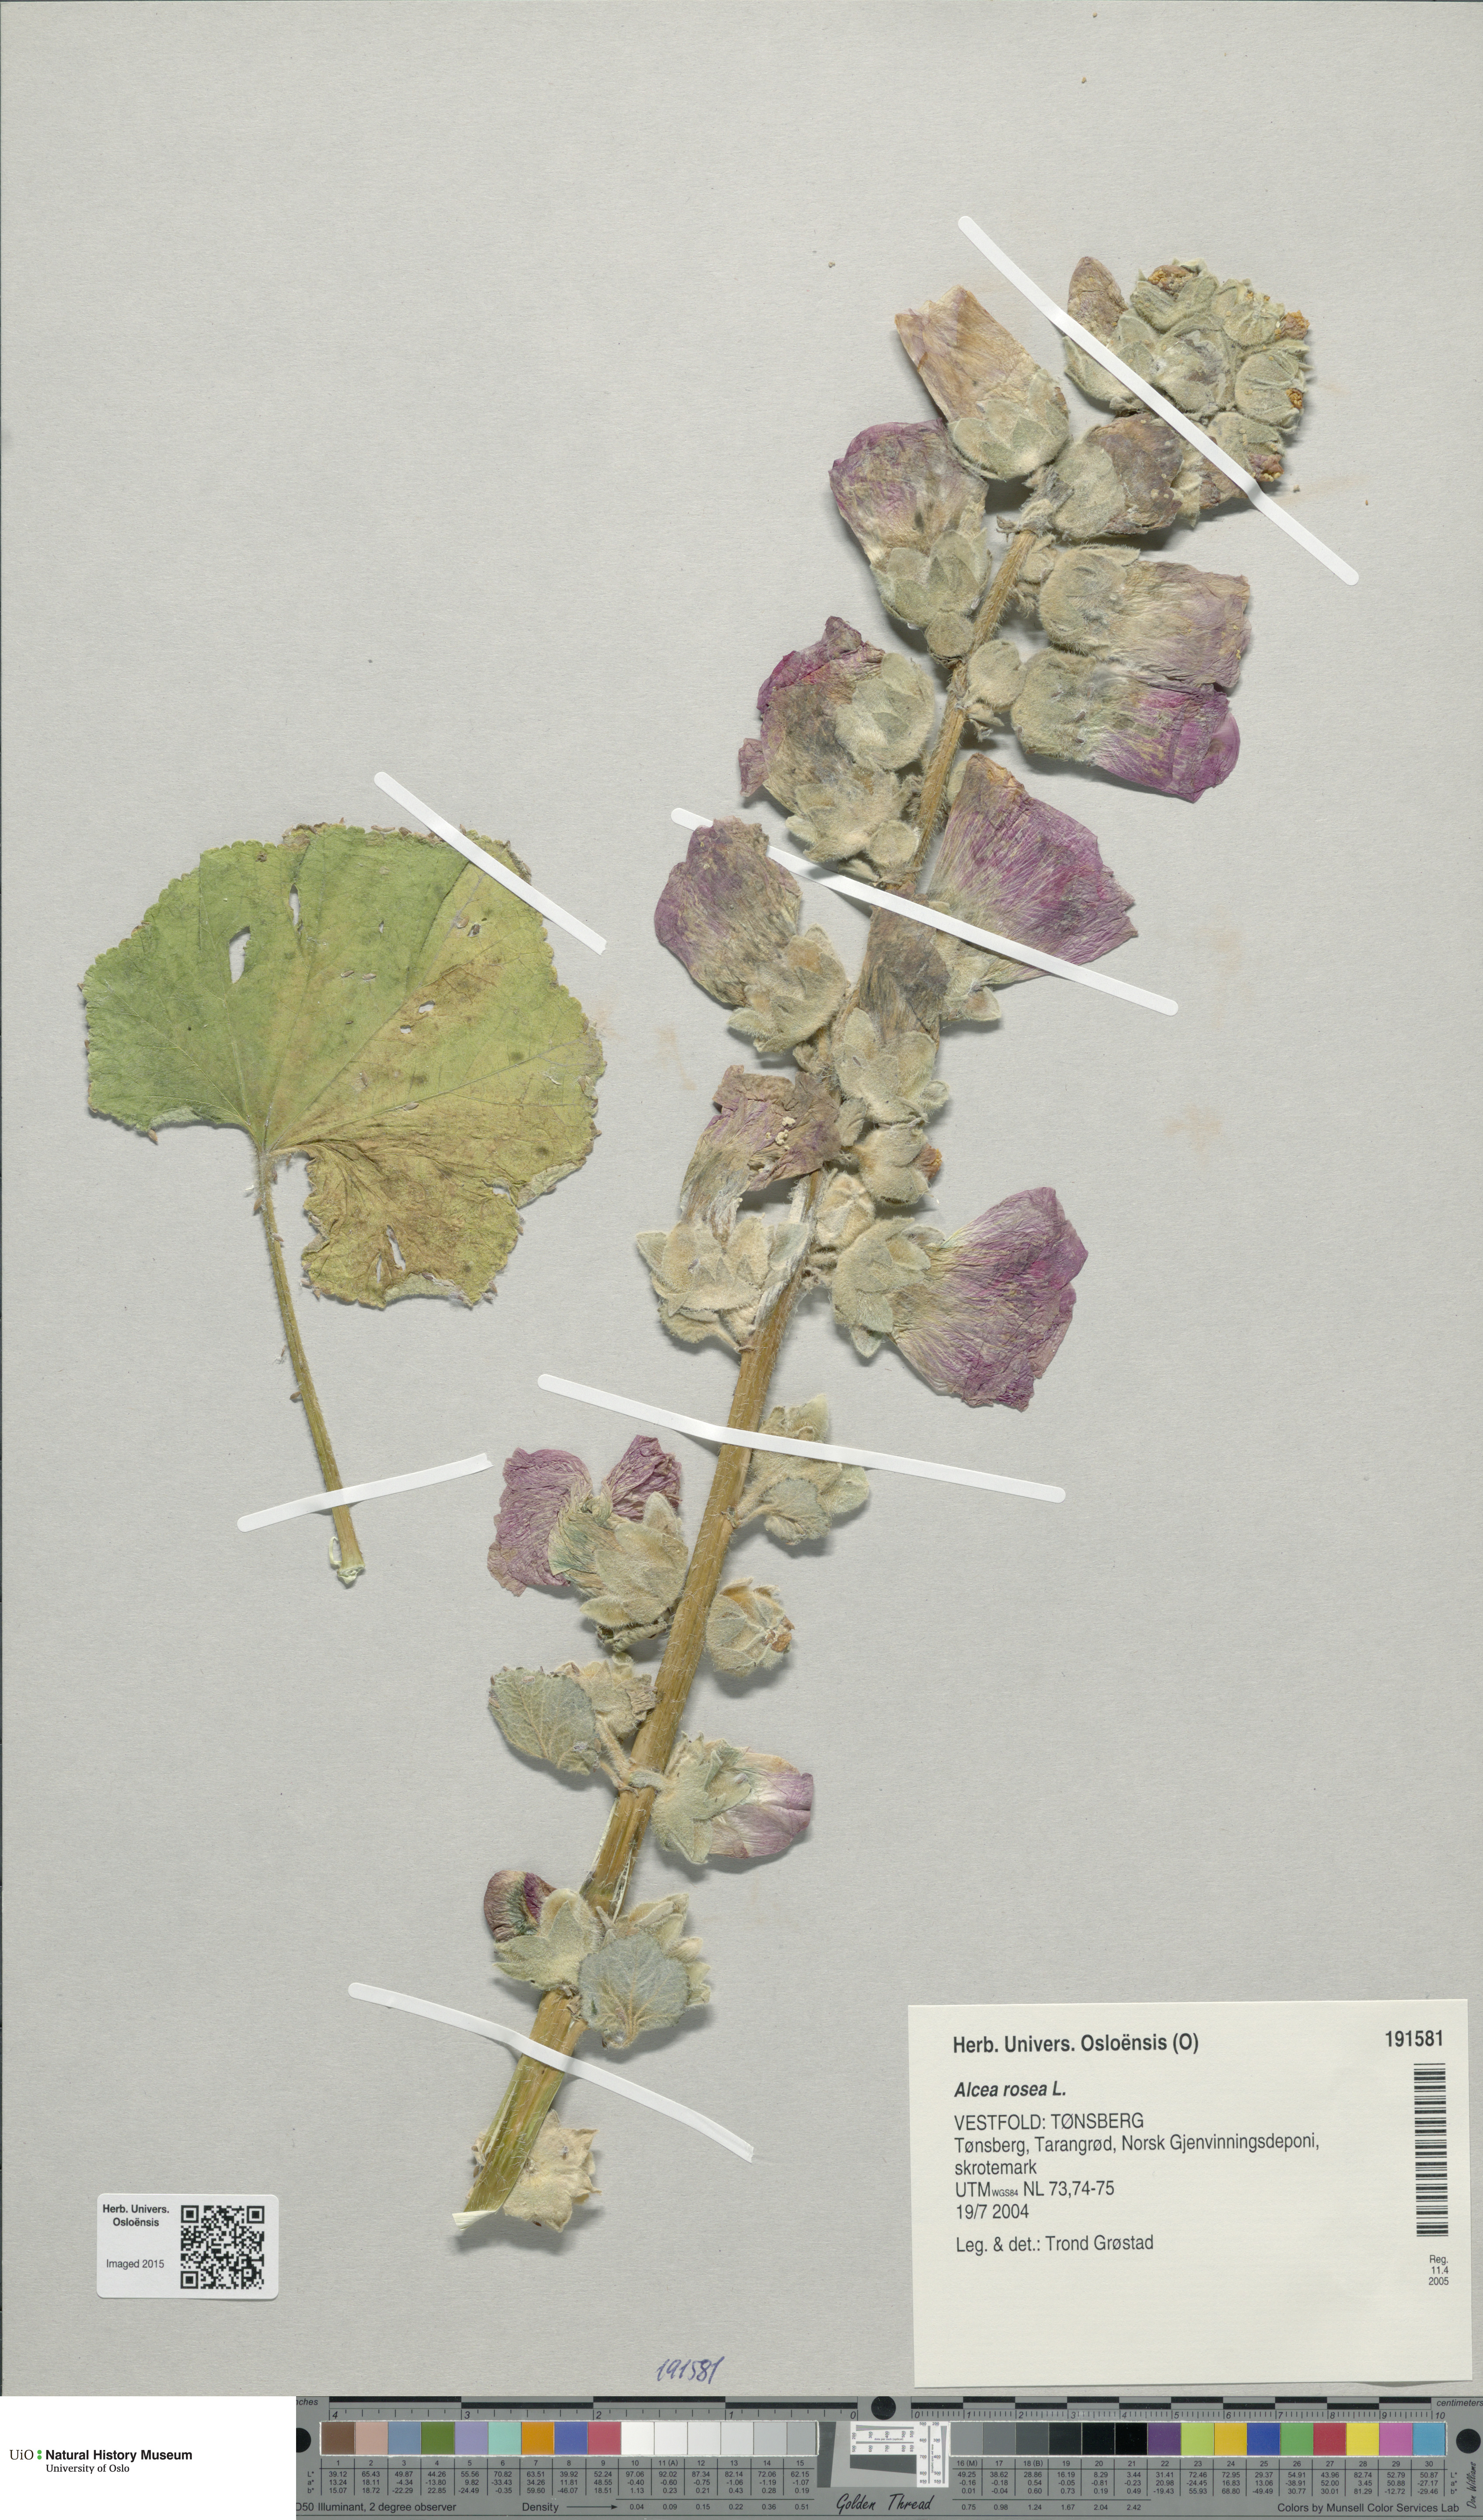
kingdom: Plantae
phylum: Tracheophyta
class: Magnoliopsida
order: Malvales
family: Malvaceae
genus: Alcea
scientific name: Alcea rosea
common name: Hollyhock
